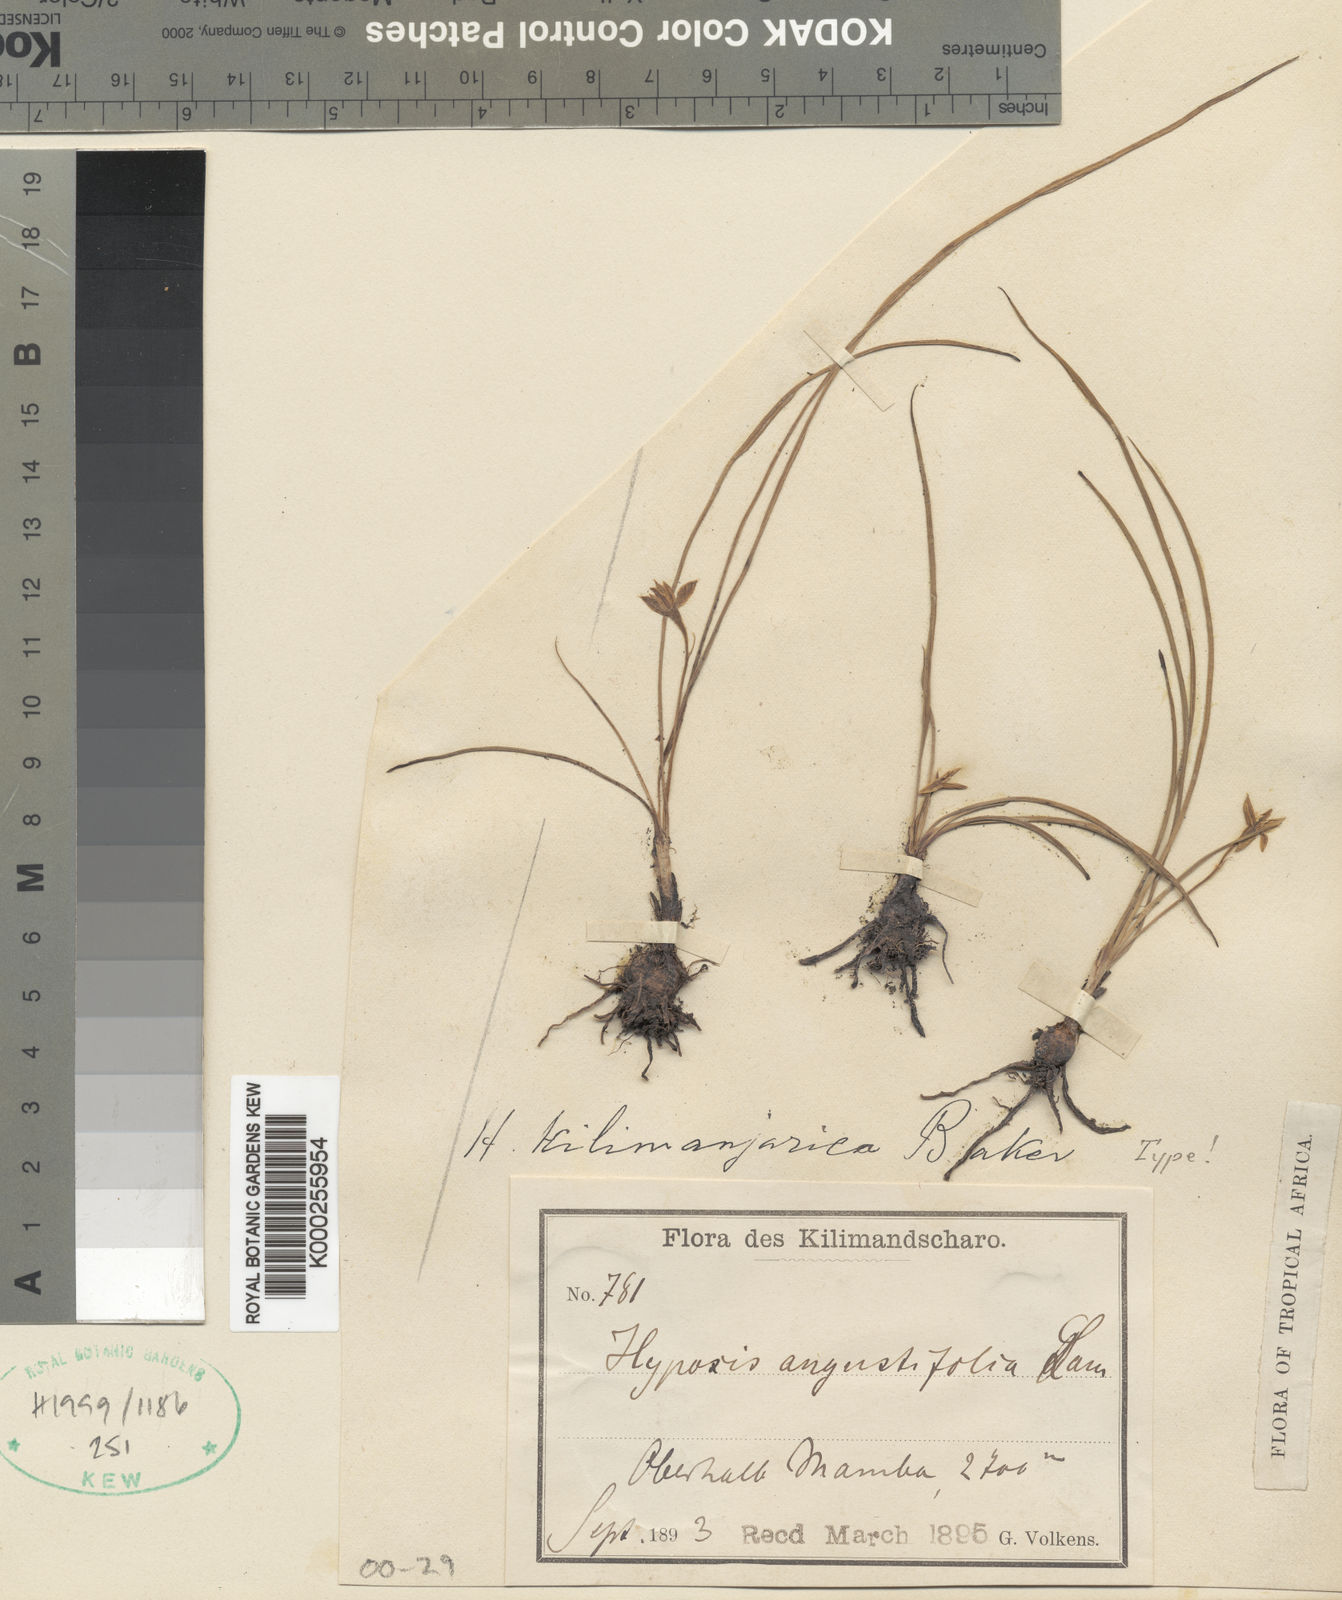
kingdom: Plantae
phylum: Tracheophyta
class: Liliopsida
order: Asparagales
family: Hypoxidaceae
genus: Hypoxis
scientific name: Hypoxis kilimanjarica
